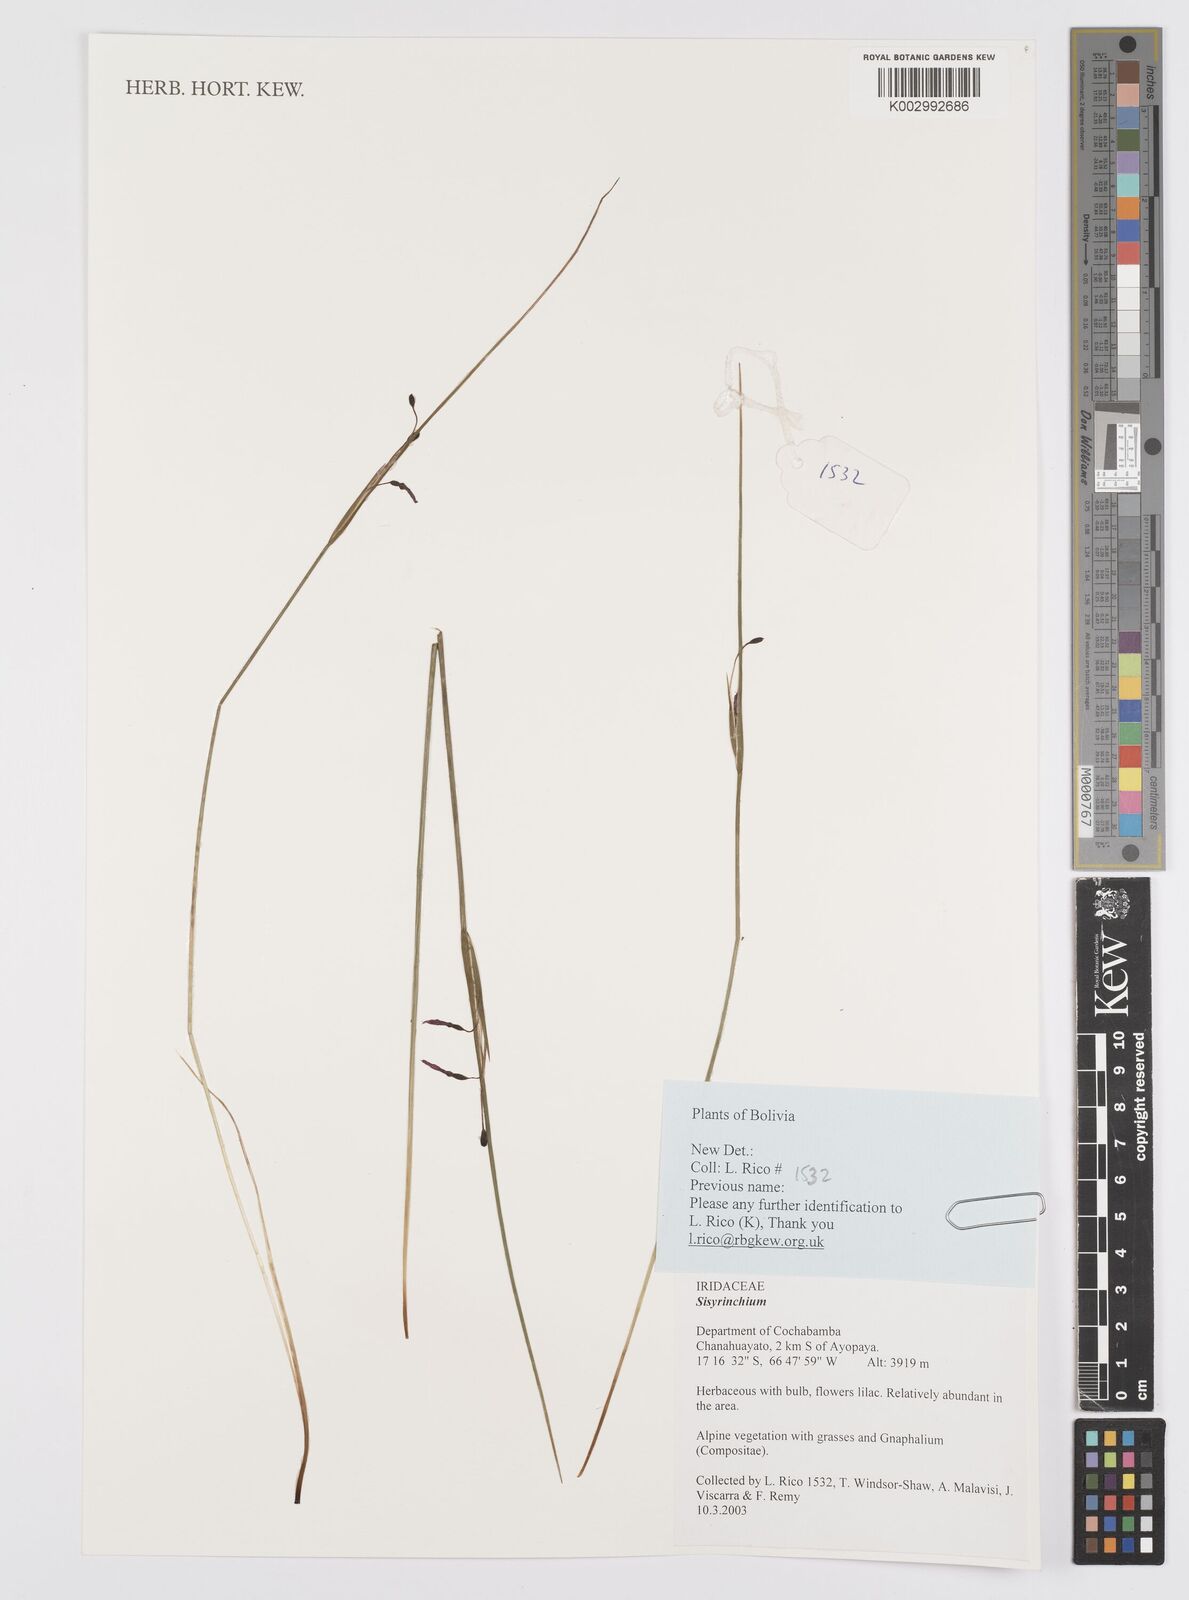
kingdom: Plantae
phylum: Tracheophyta
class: Liliopsida
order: Asparagales
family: Iridaceae
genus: Sisyrinchium
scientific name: Sisyrinchium
